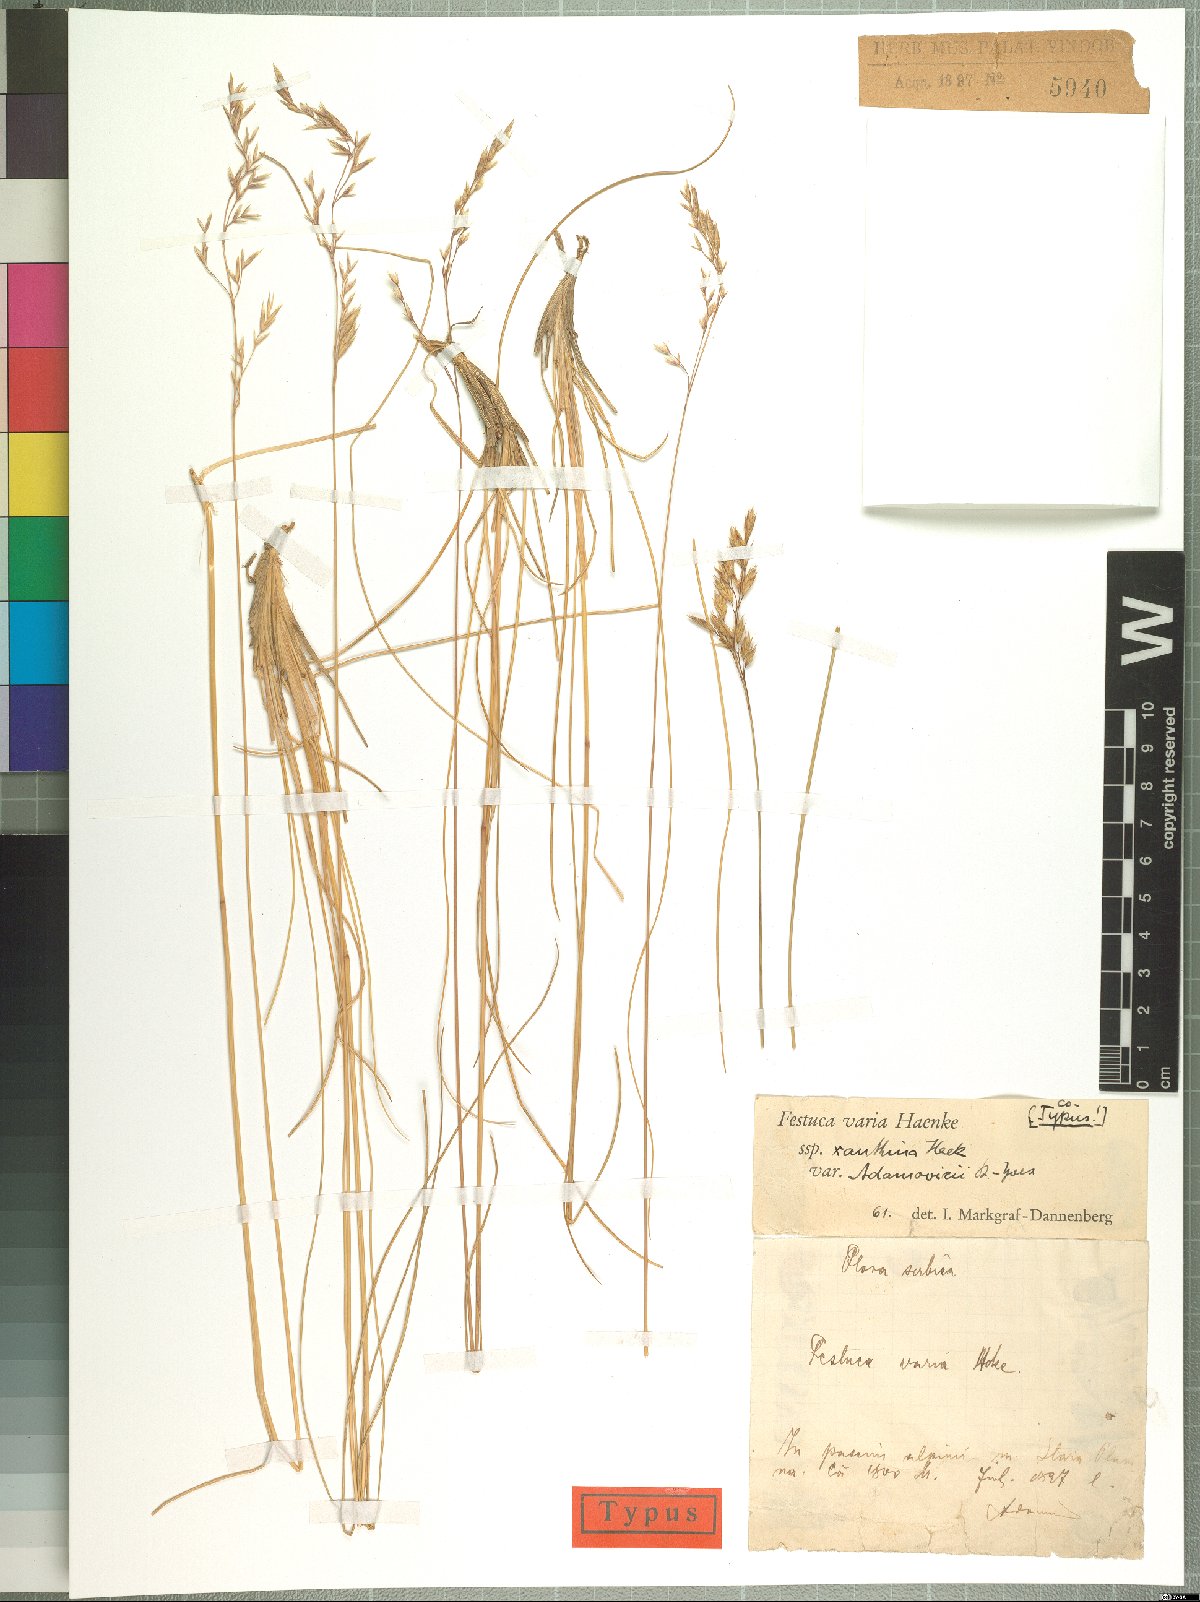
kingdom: Plantae
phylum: Tracheophyta
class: Liliopsida
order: Poales
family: Poaceae
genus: Festuca
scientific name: Festuca adamovicii
